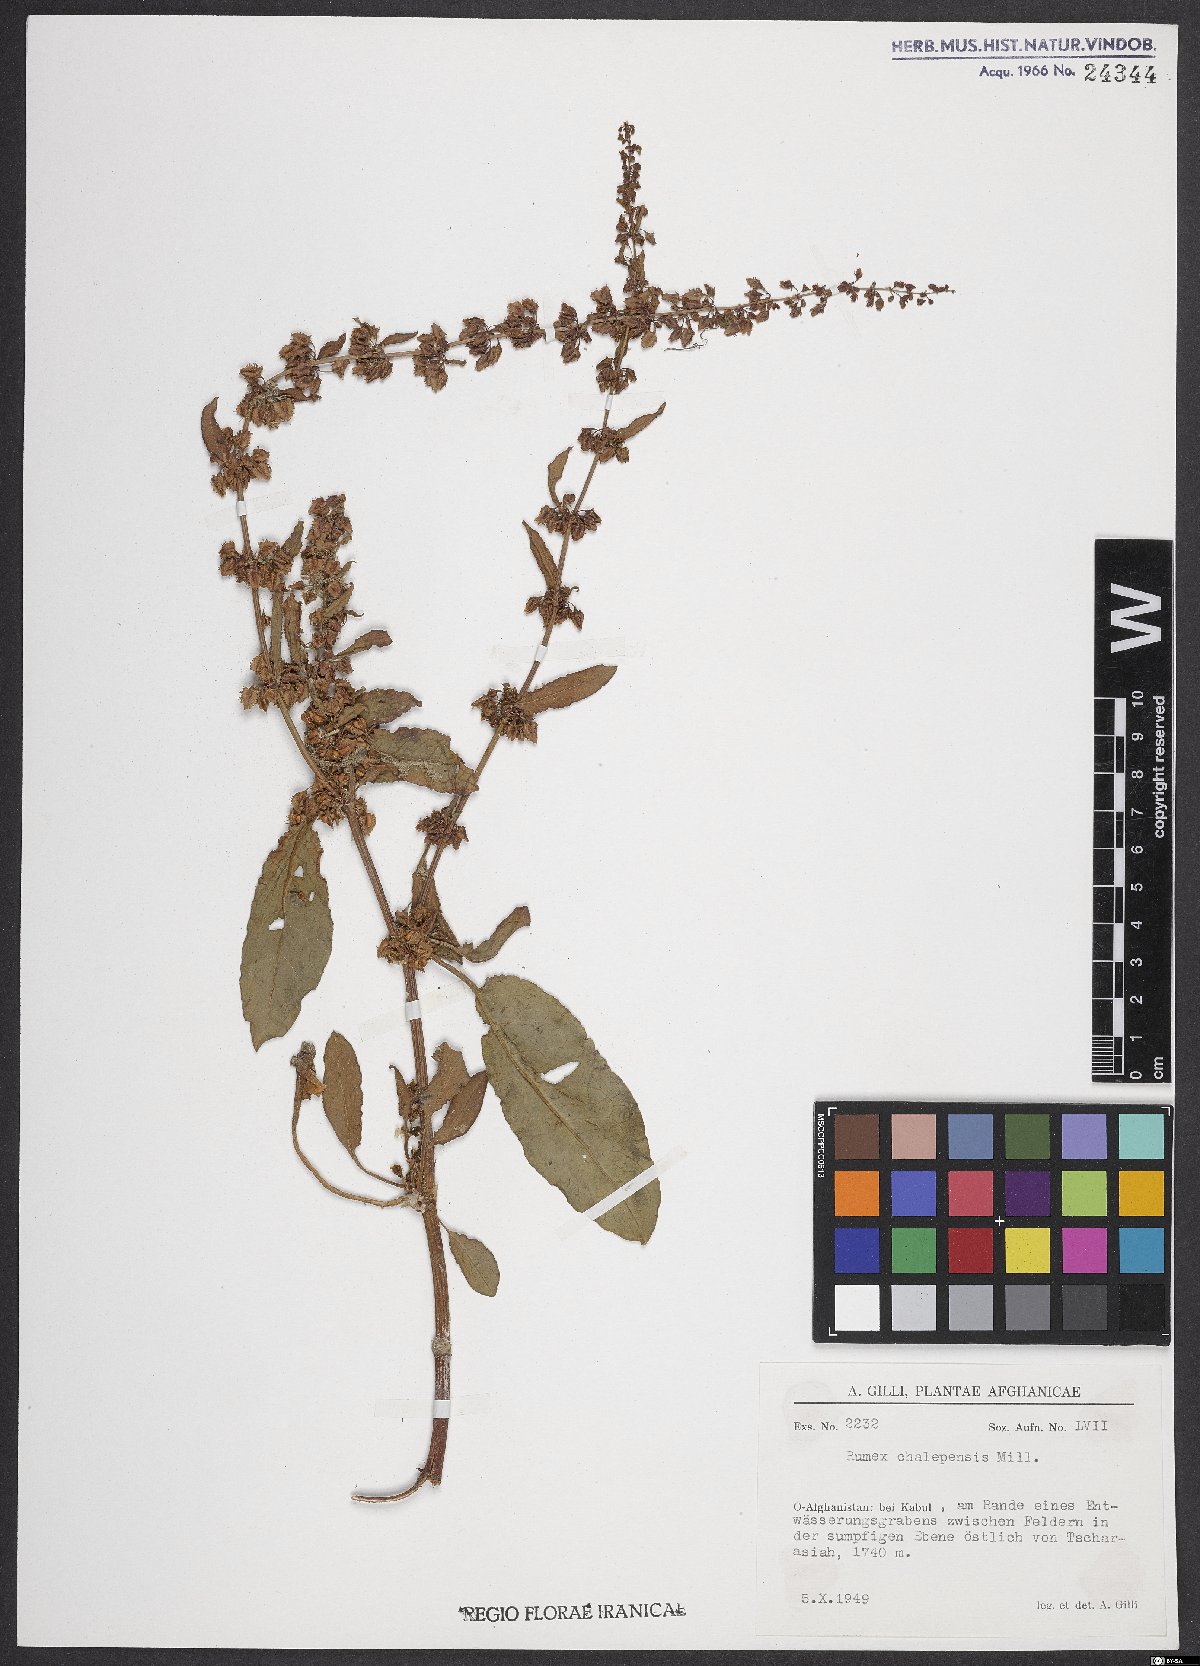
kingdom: Plantae
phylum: Tracheophyta
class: Magnoliopsida
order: Caryophyllales
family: Polygonaceae
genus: Rumex
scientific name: Rumex chalepensis
